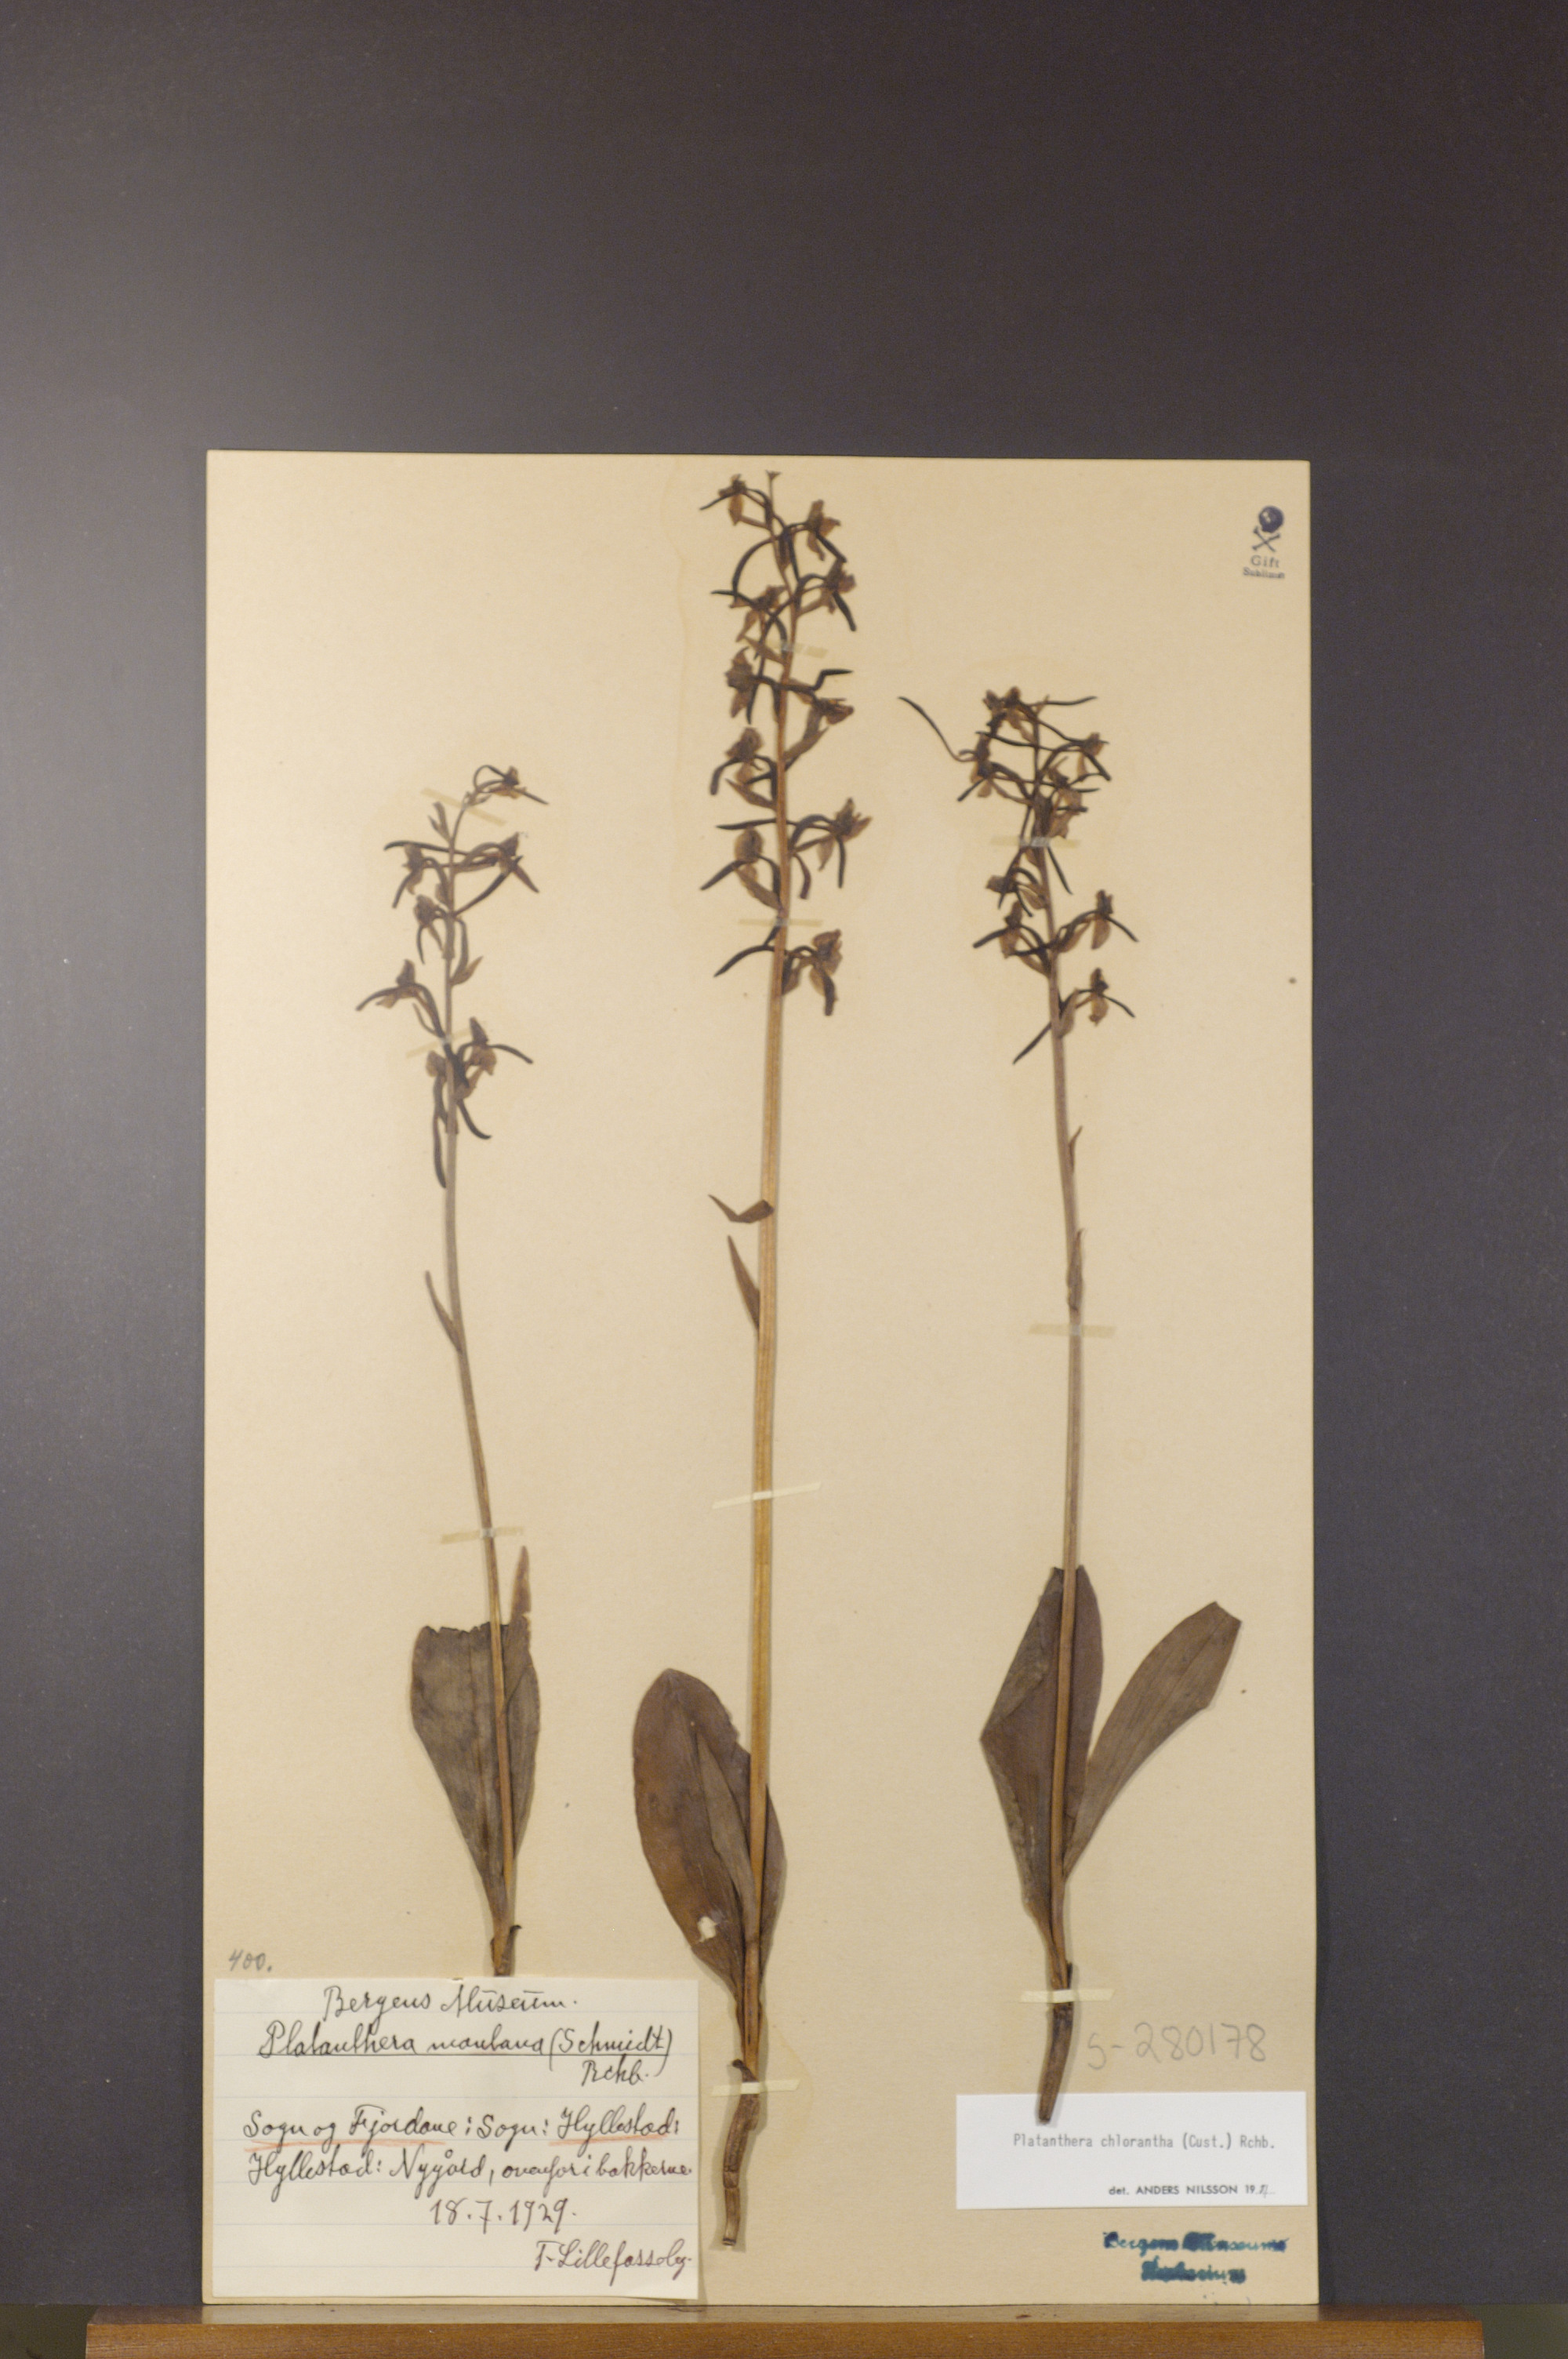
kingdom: Plantae
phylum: Tracheophyta
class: Liliopsida
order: Asparagales
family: Orchidaceae
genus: Platanthera
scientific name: Platanthera chlorantha
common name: Greater butterfly-orchid
